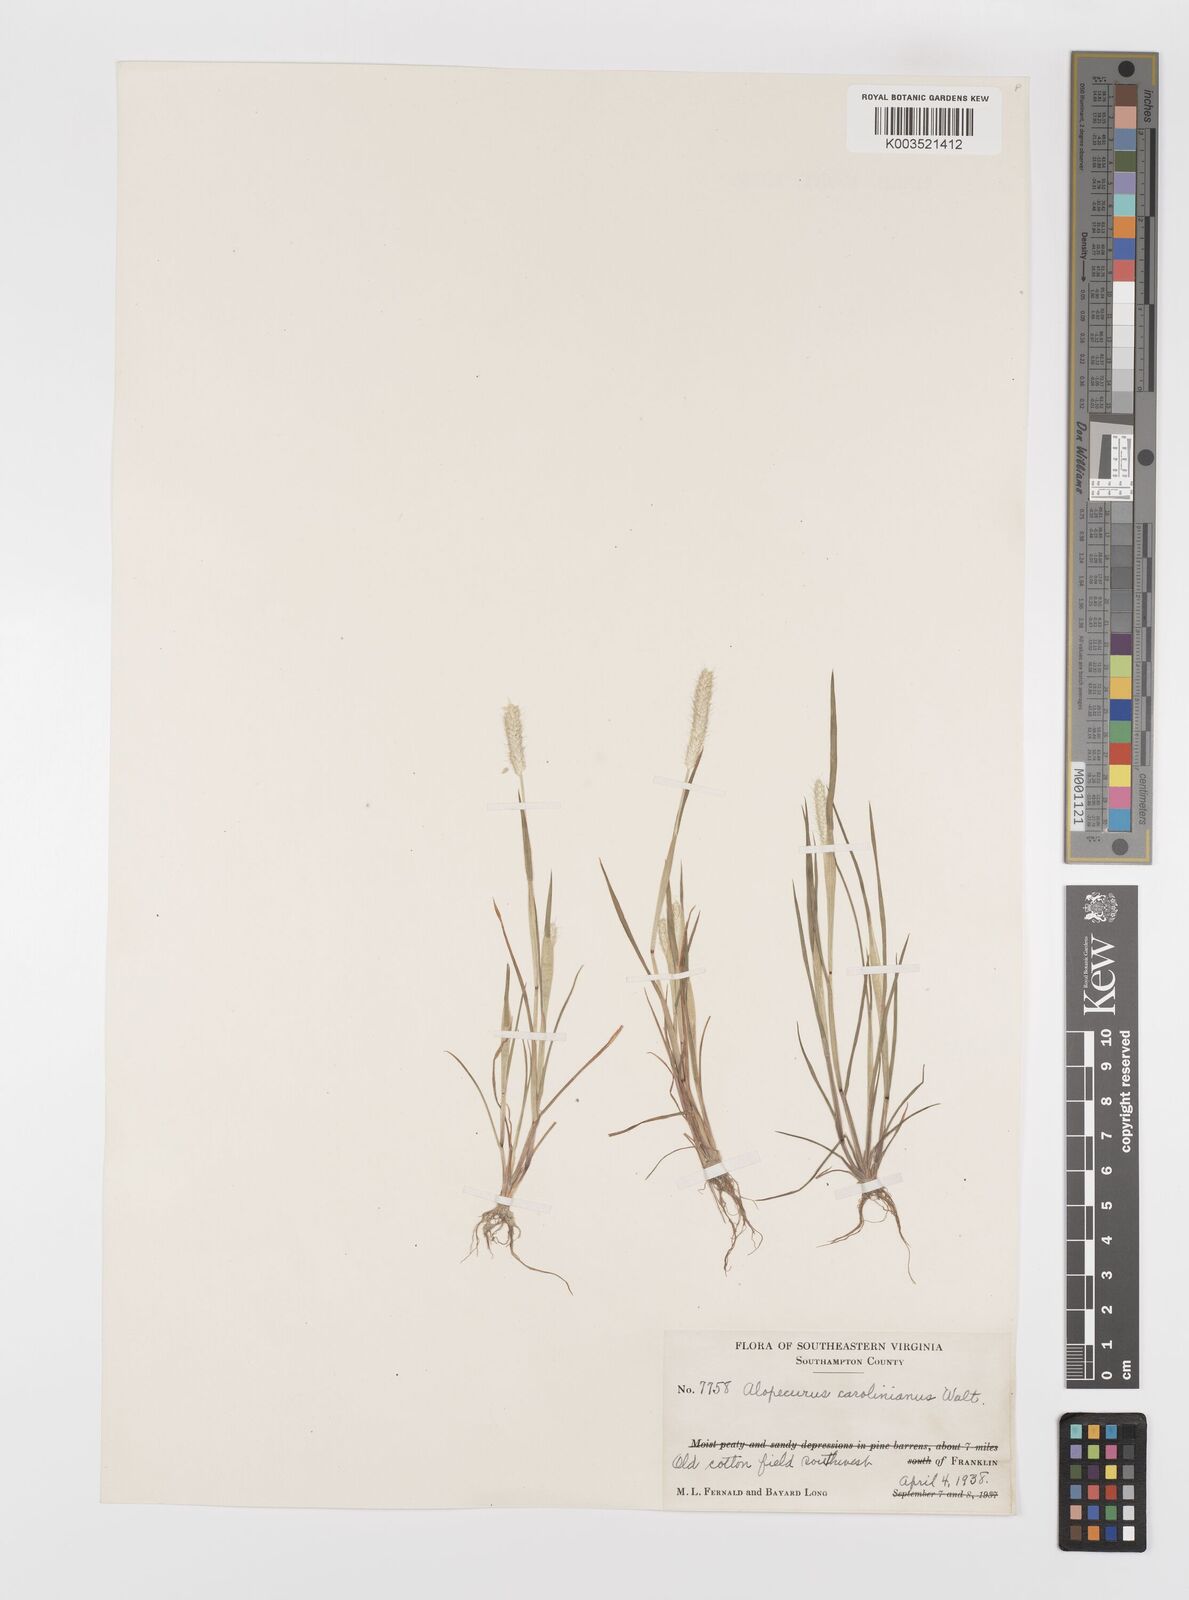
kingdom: Plantae
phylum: Tracheophyta
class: Liliopsida
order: Poales
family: Poaceae
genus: Alopecurus
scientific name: Alopecurus carolinianus
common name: Tufted foxtail
